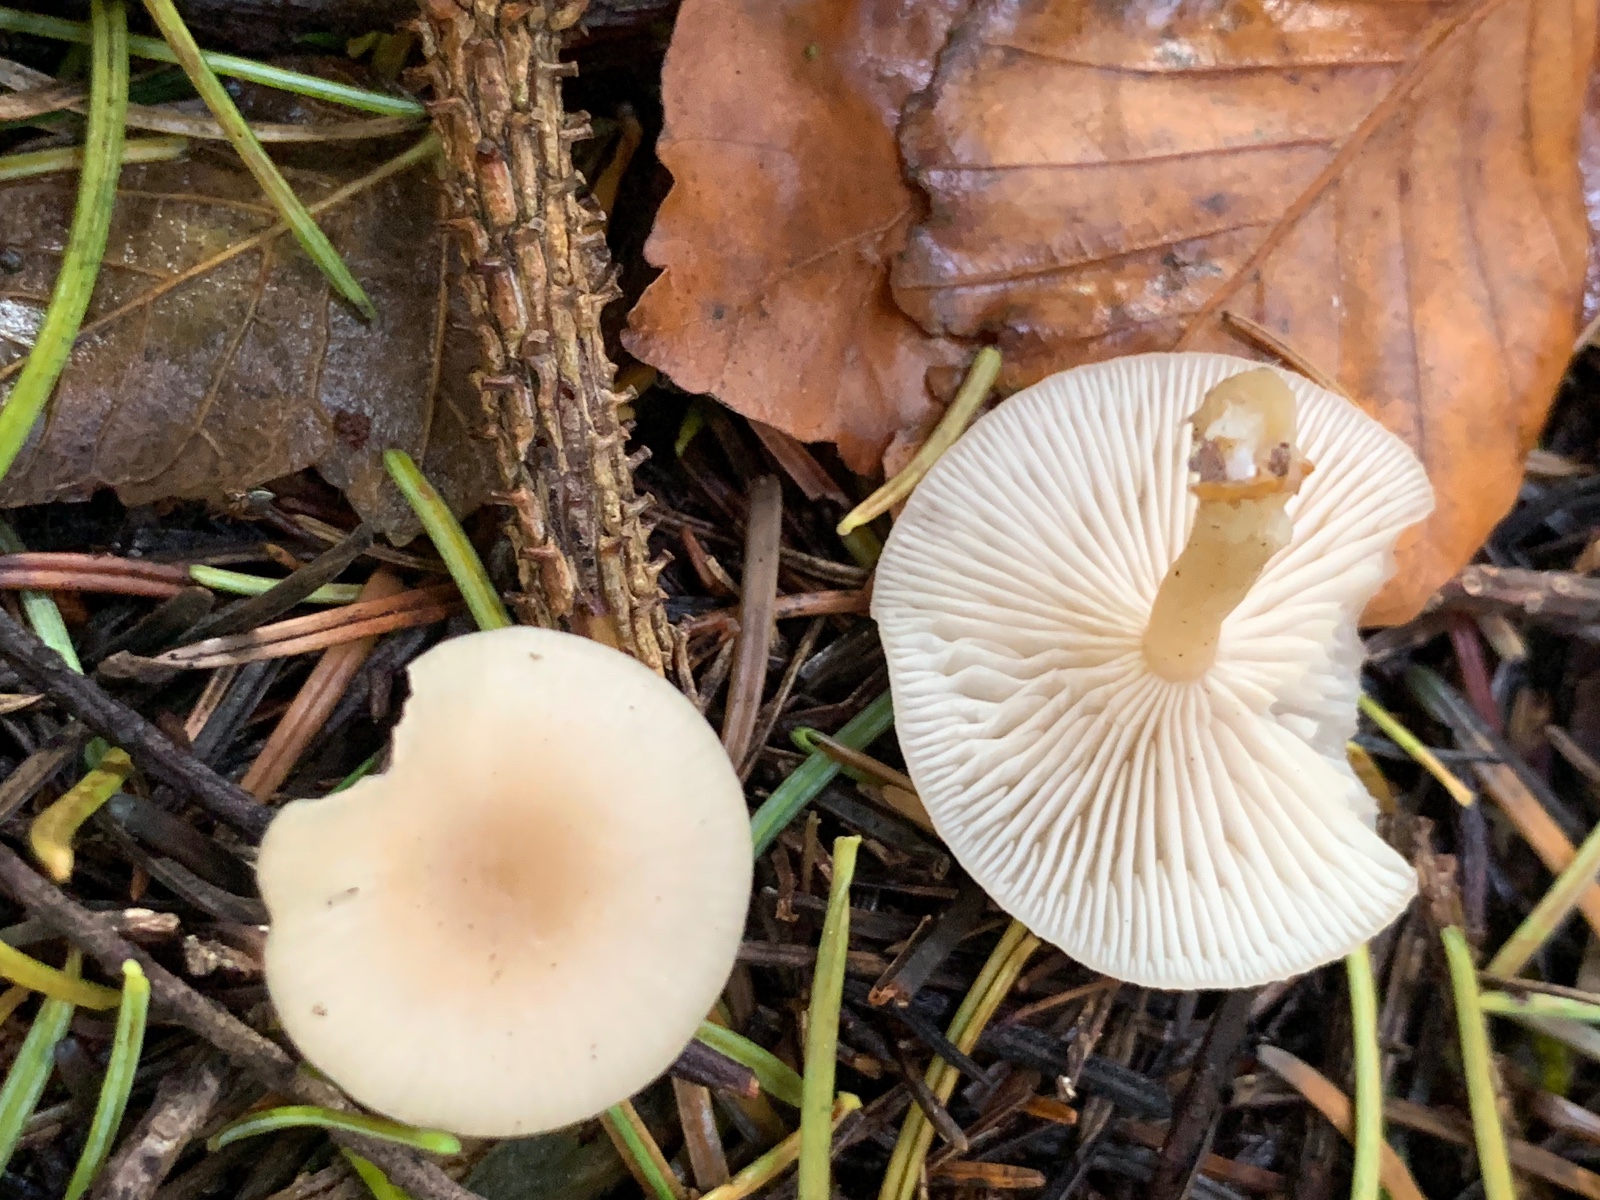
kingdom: Fungi
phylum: Basidiomycota
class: Agaricomycetes
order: Agaricales
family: Tricholomataceae
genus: Clitocybe
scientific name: Clitocybe fragrans
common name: vellugtende tragthat
